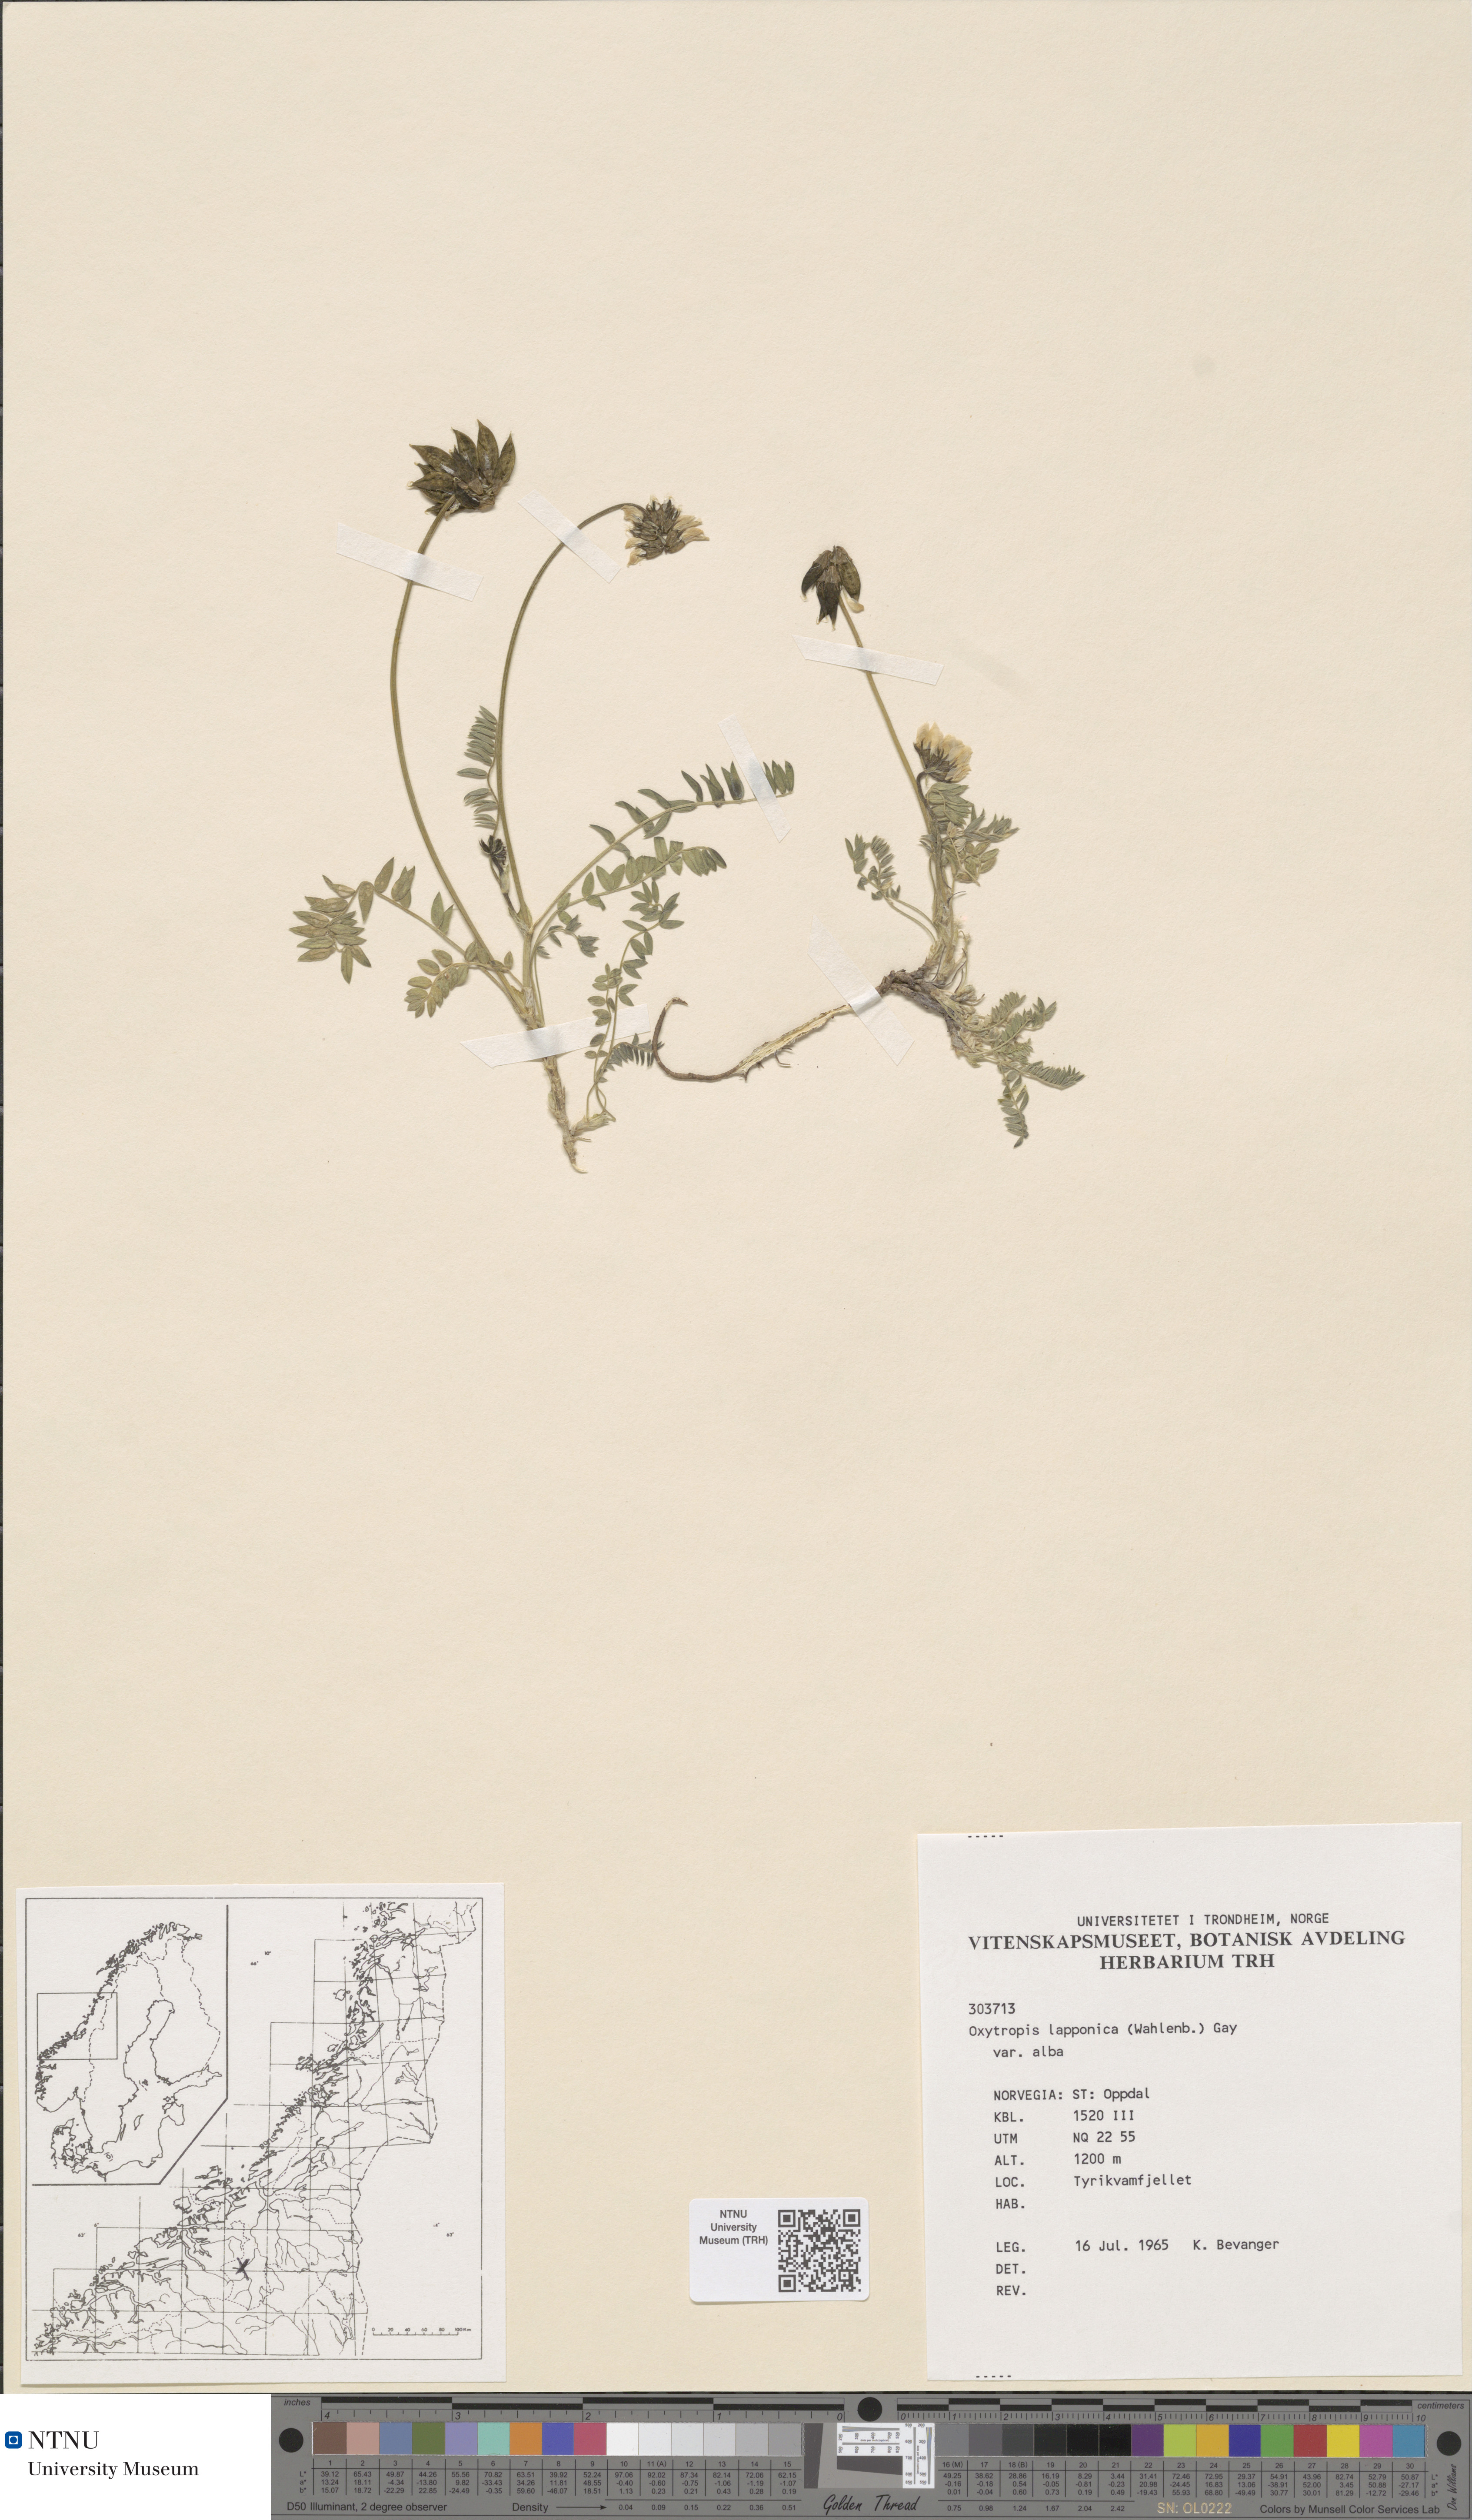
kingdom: Plantae
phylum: Tracheophyta
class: Magnoliopsida
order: Fabales
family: Fabaceae
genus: Oxytropis
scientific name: Oxytropis lapponica
